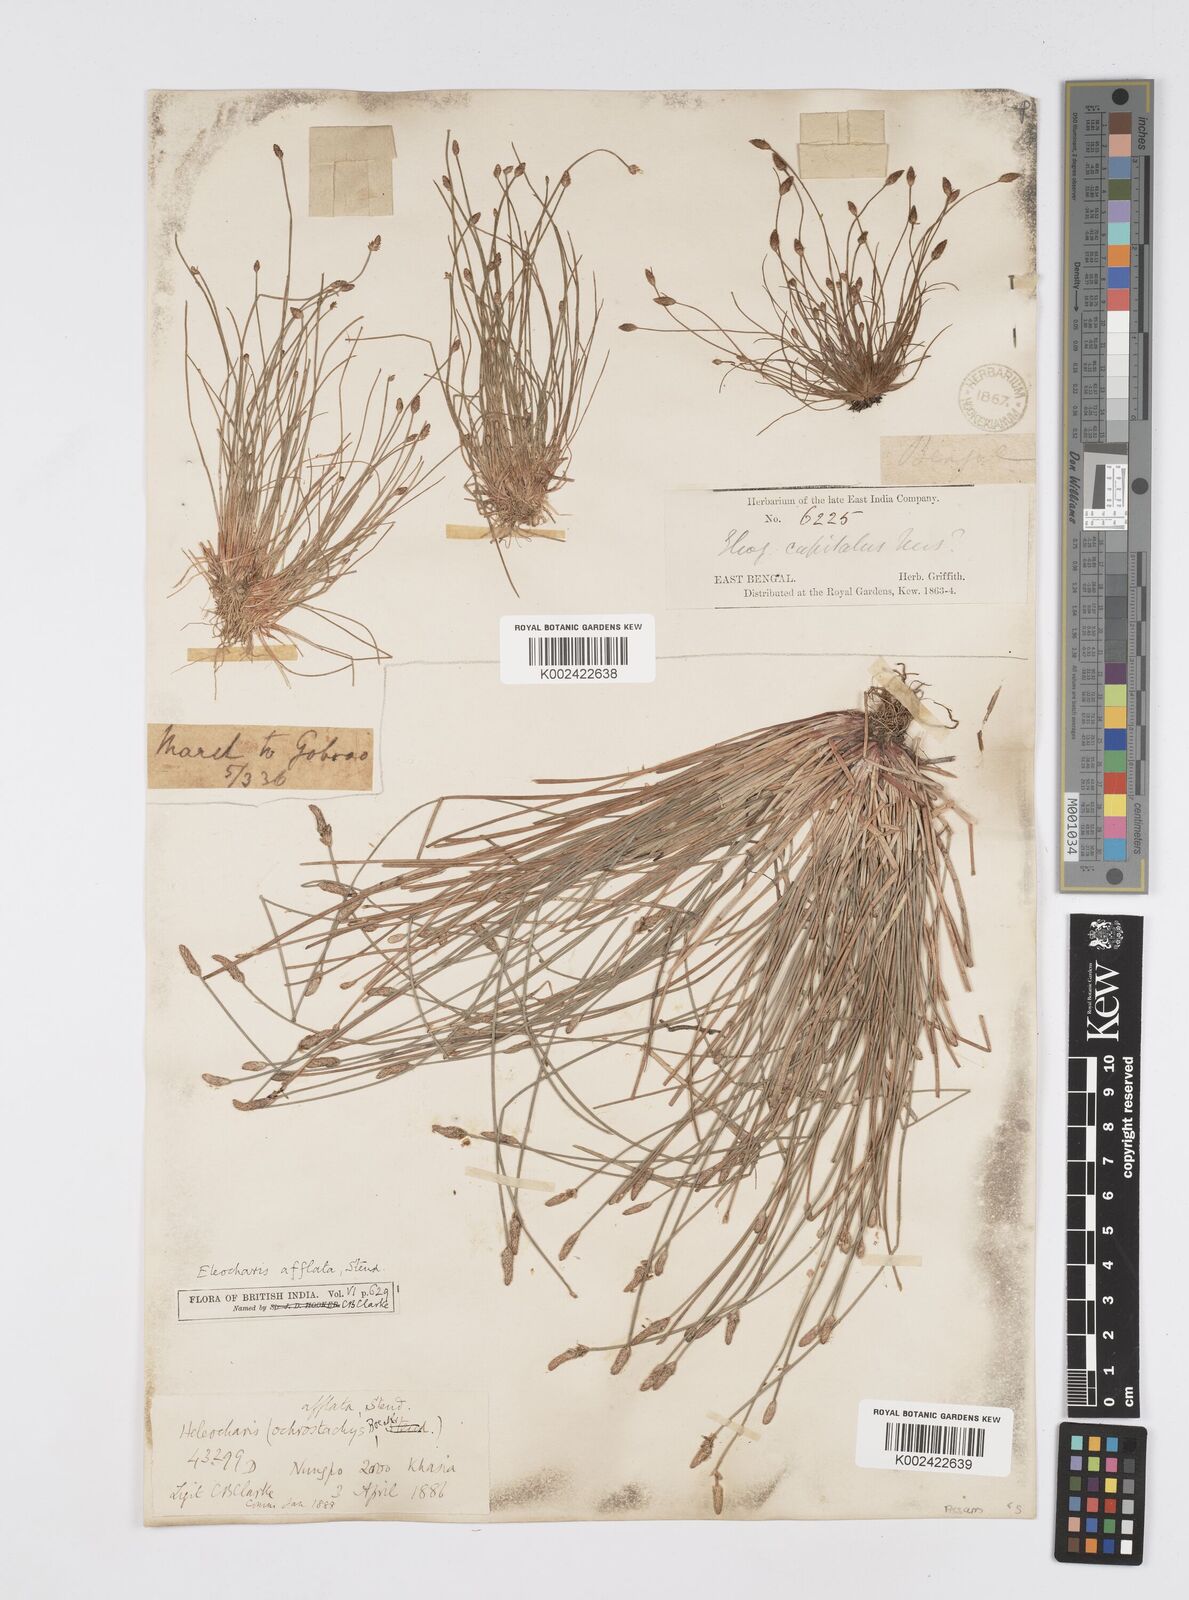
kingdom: Plantae
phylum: Tracheophyta
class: Liliopsida
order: Poales
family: Cyperaceae
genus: Eleocharis
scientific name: Eleocharis pellucida
